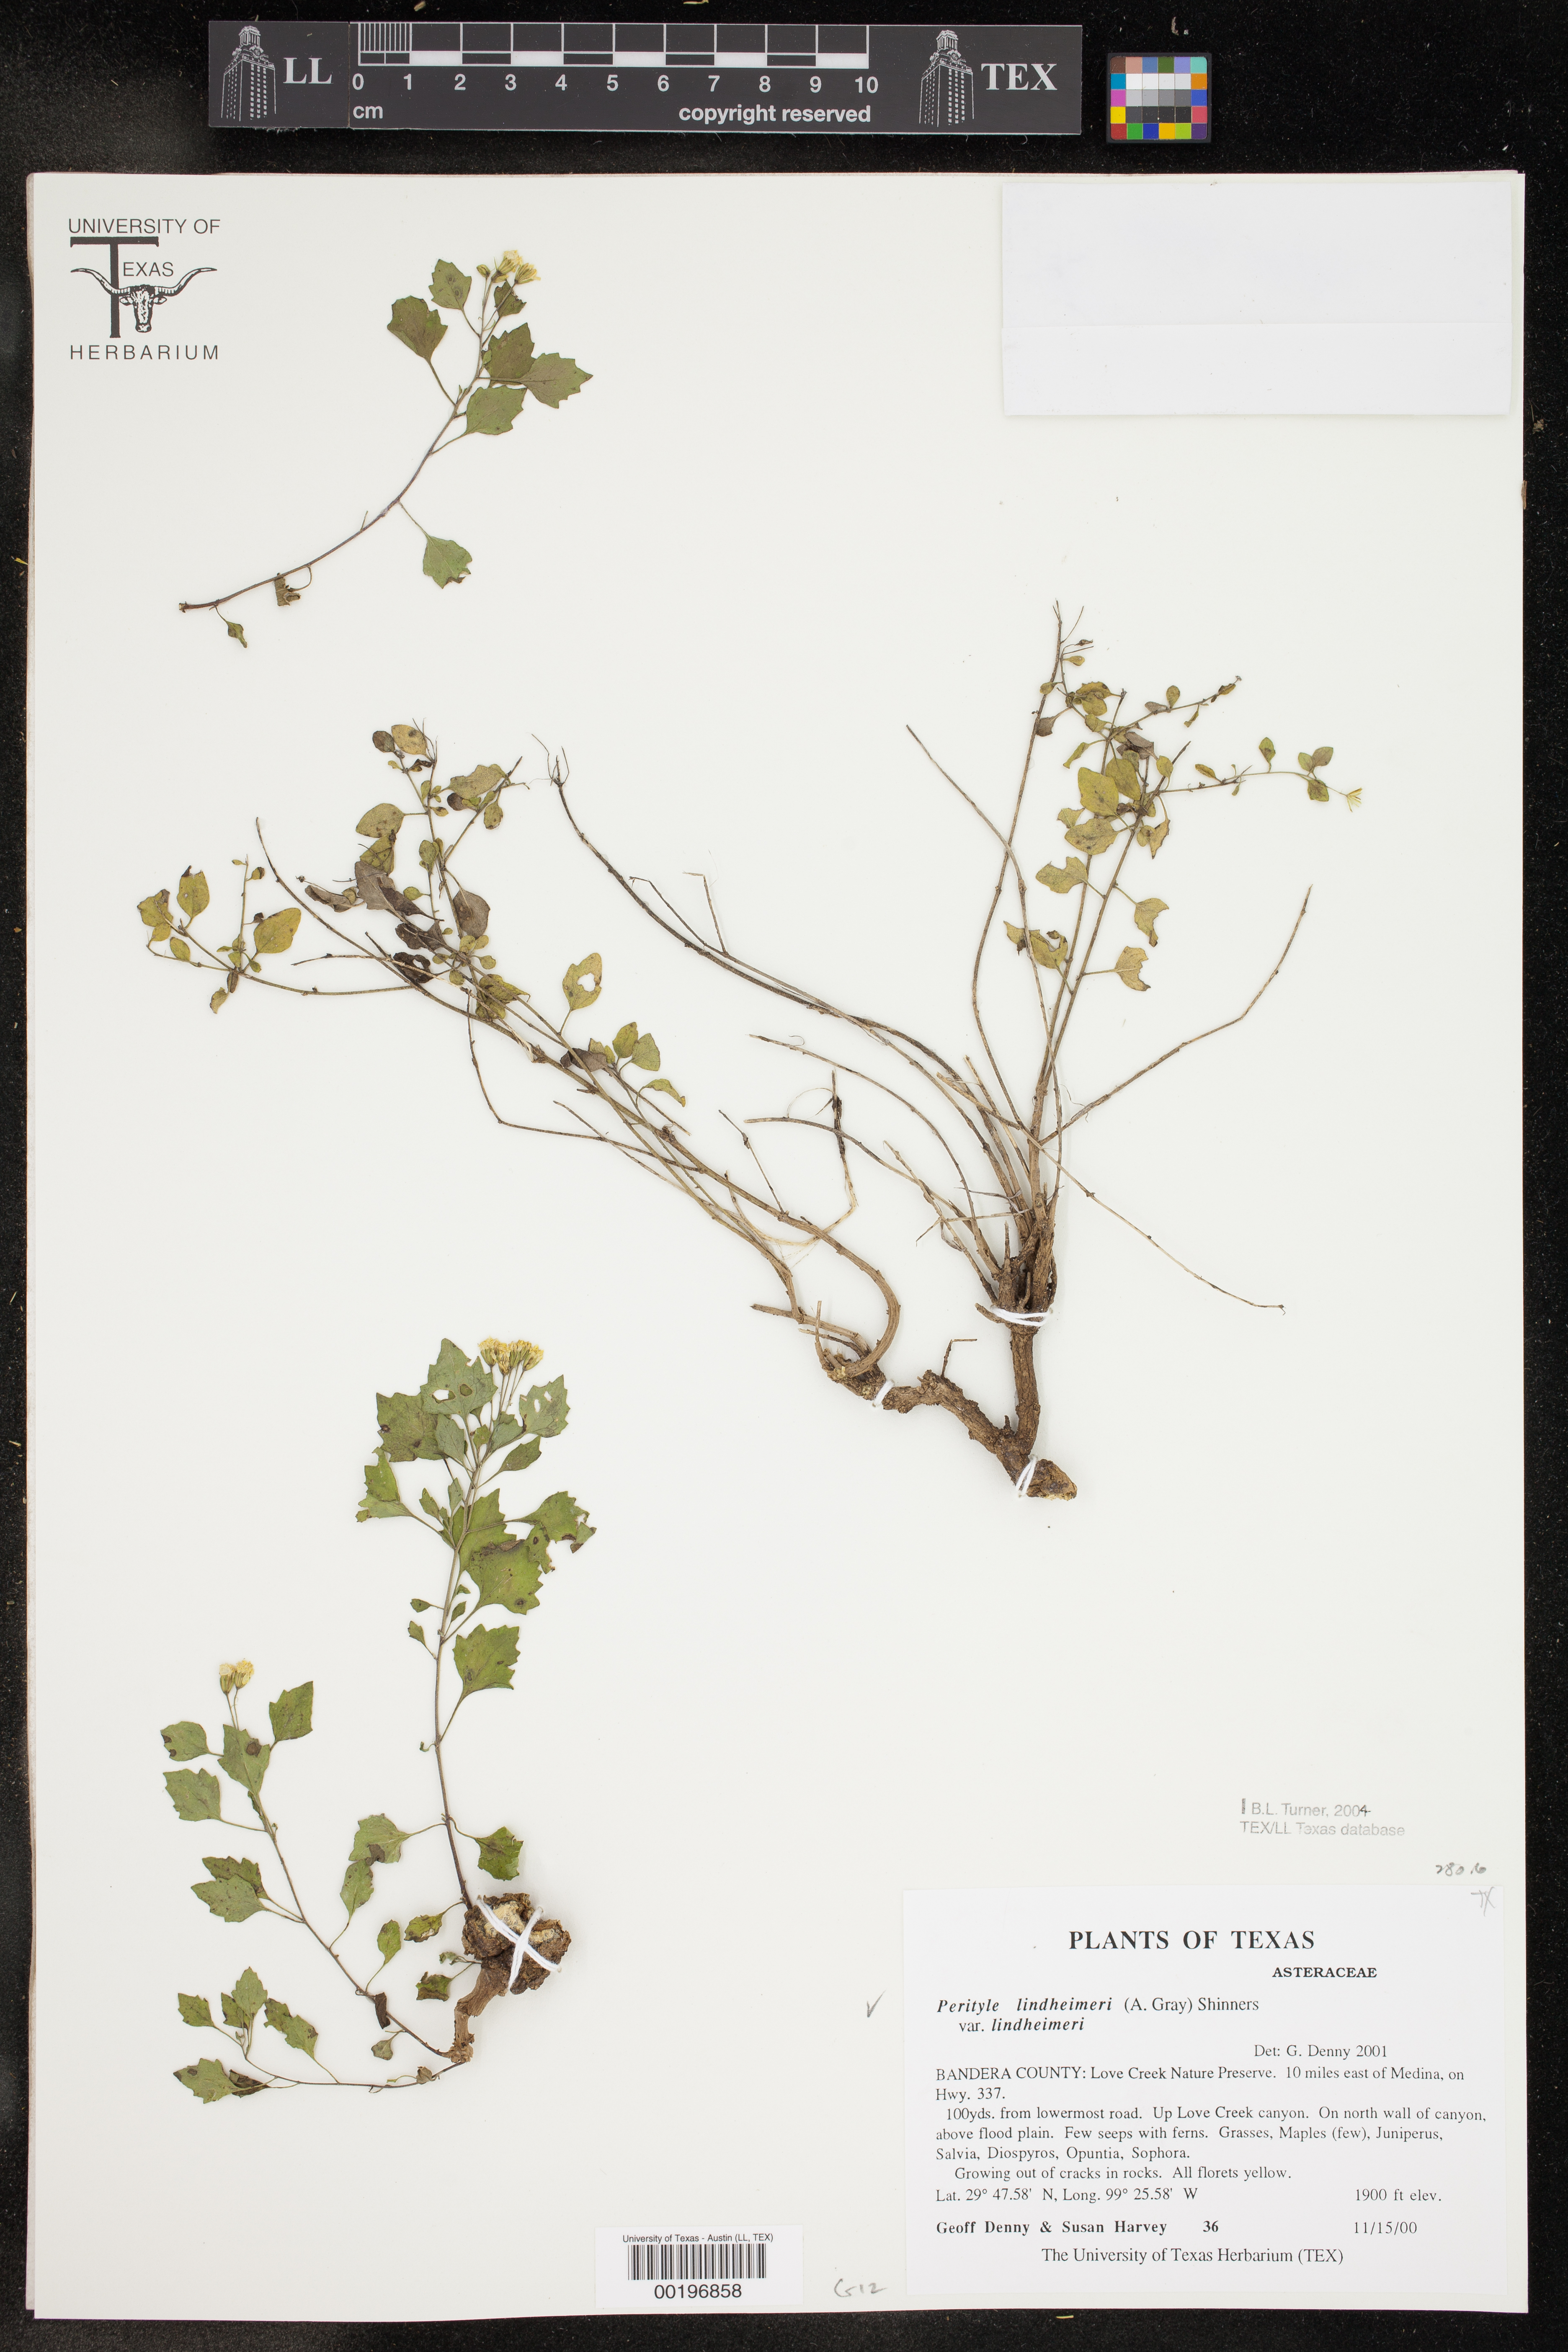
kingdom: Plantae
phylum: Tracheophyta
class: Magnoliopsida
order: Asterales
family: Asteraceae
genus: Laphamia
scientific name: Laphamia lindheimeri
